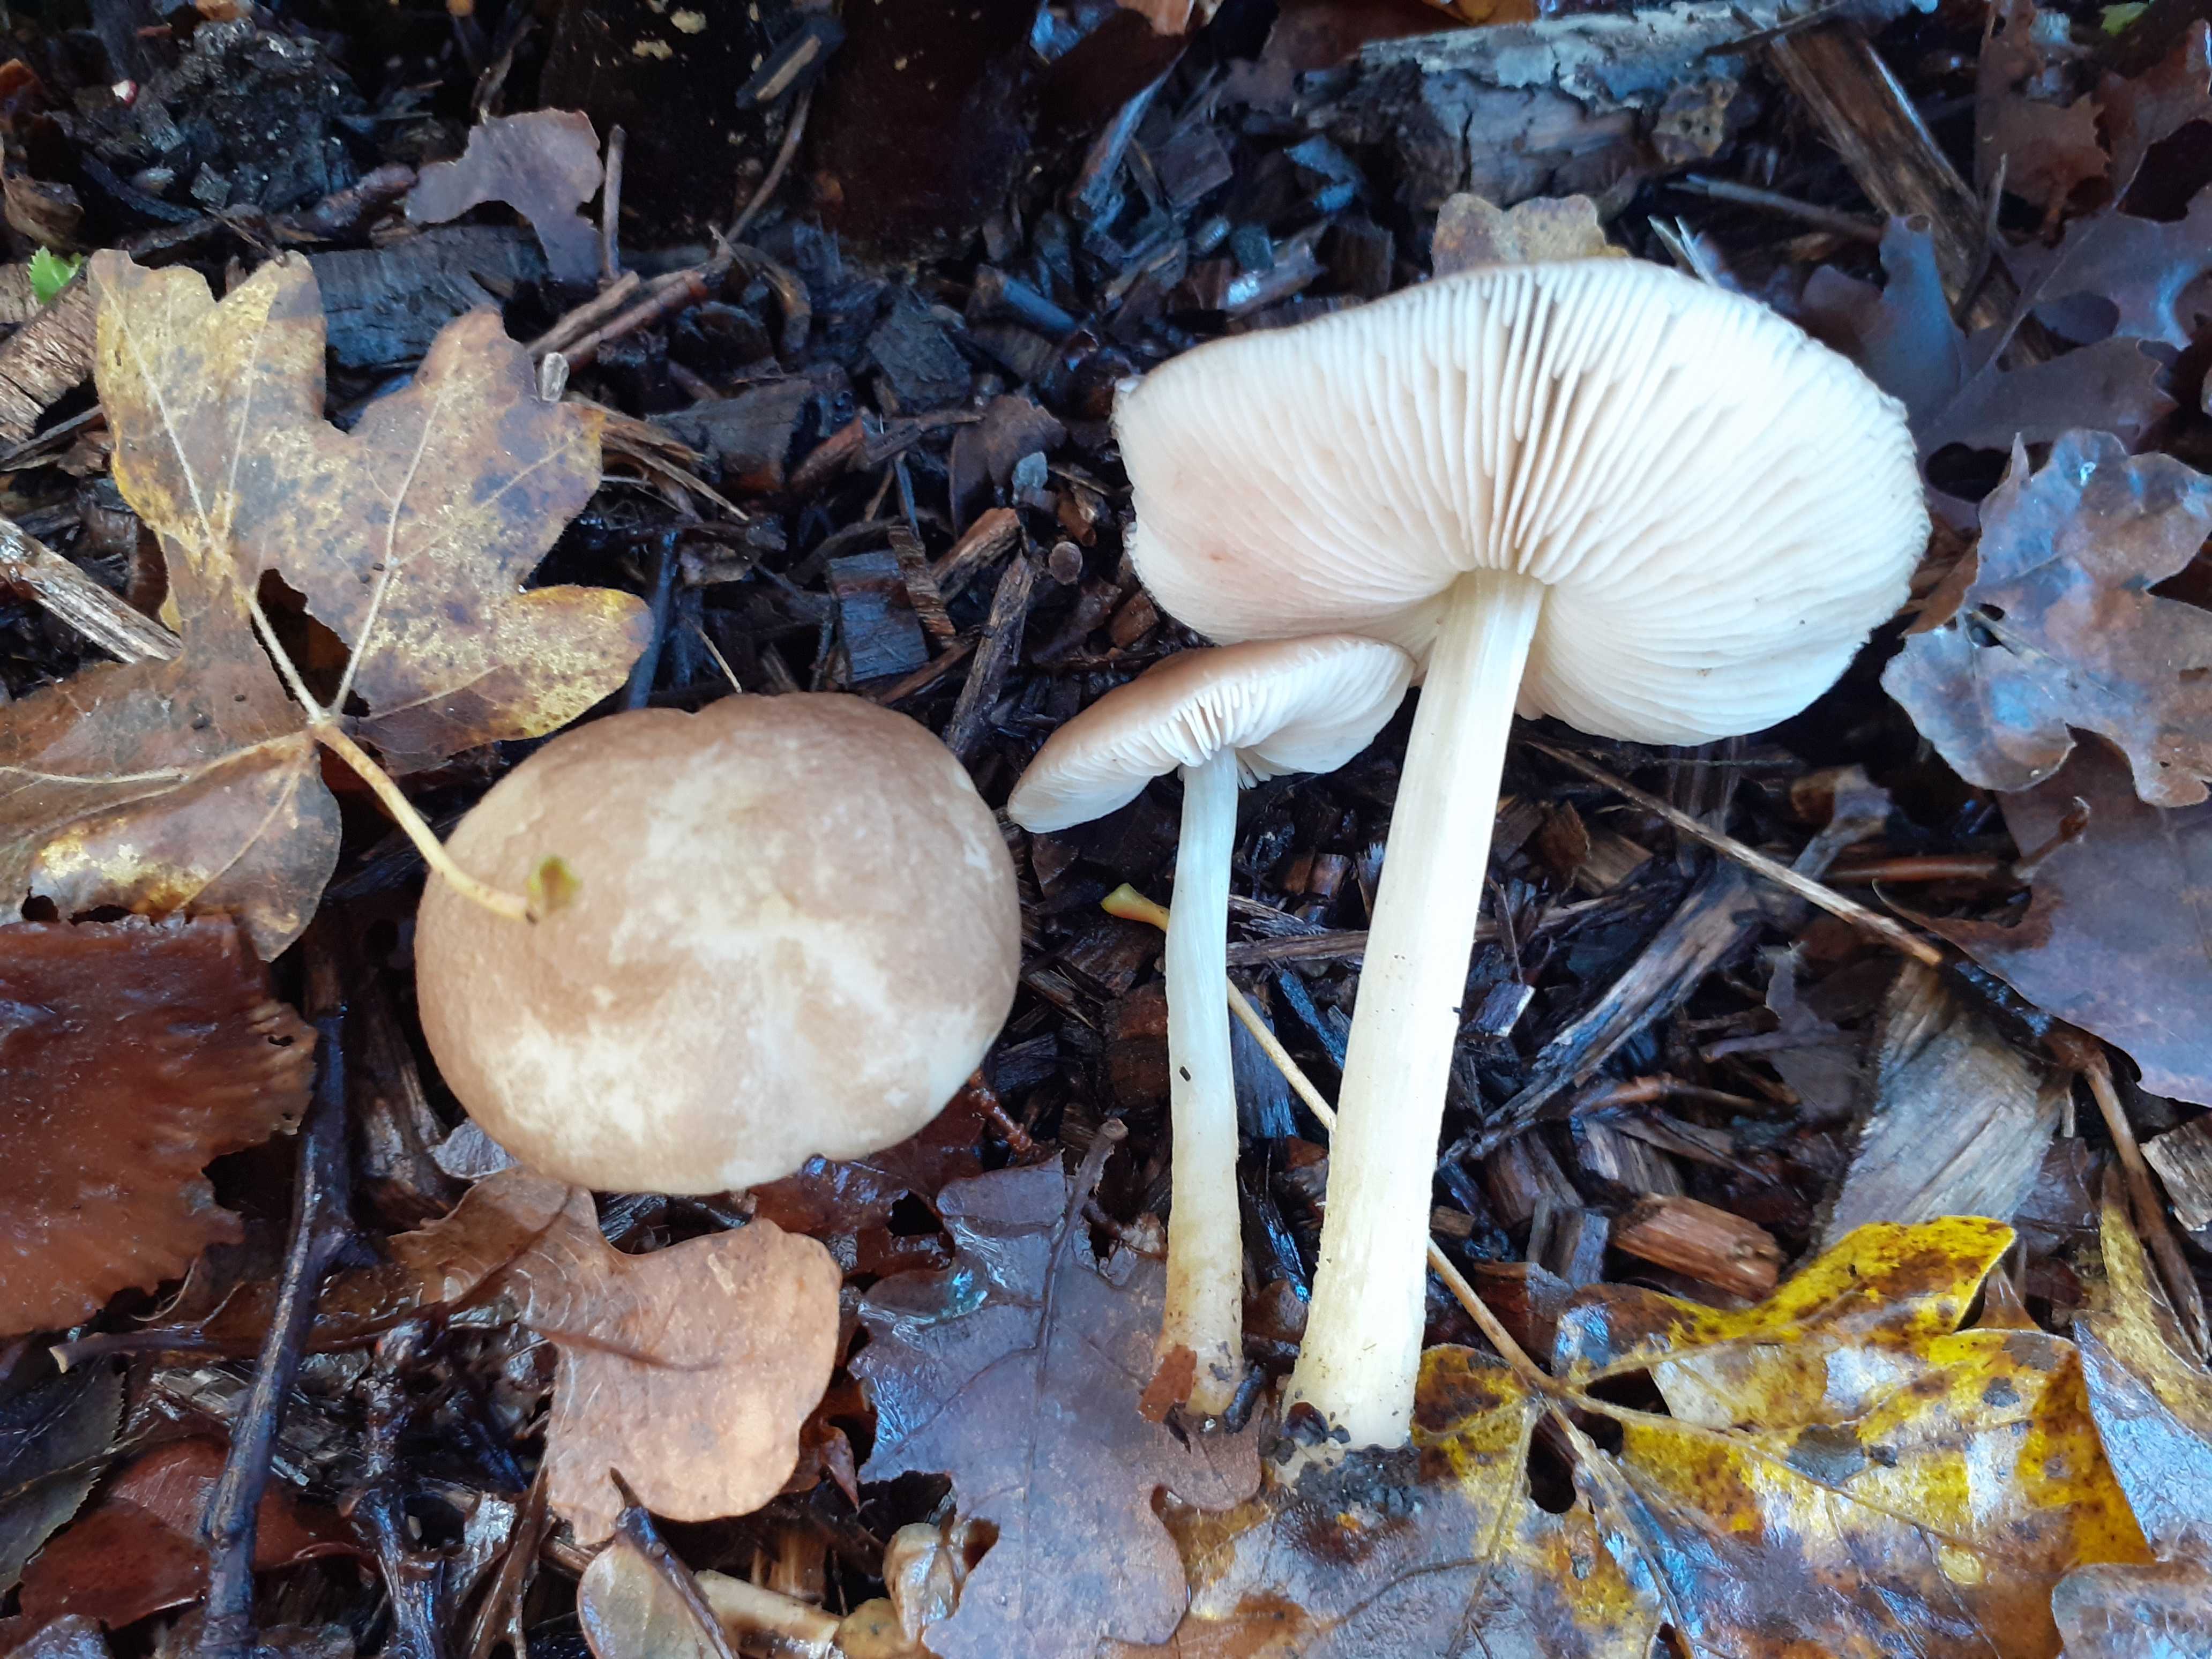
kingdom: Fungi
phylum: Basidiomycota
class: Agaricomycetes
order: Agaricales
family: Pluteaceae
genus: Pluteus
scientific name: Pluteus romellii
